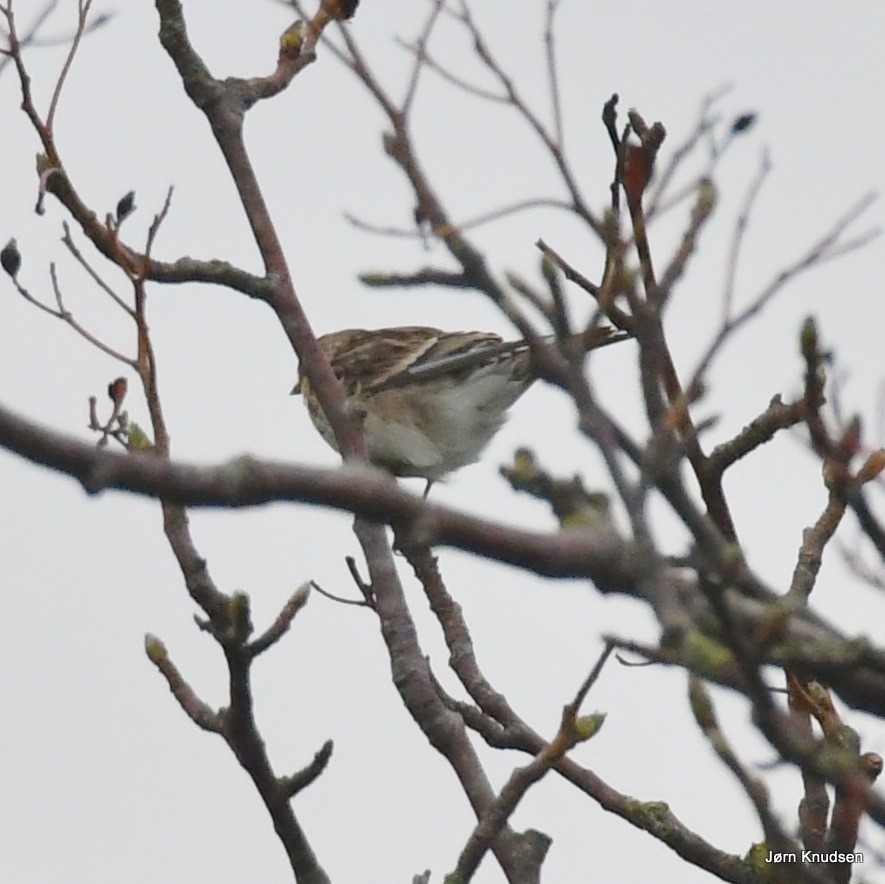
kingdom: Animalia
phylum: Chordata
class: Aves
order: Passeriformes
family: Fringillidae
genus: Linaria
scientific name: Linaria flavirostris
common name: Bjergirisk
